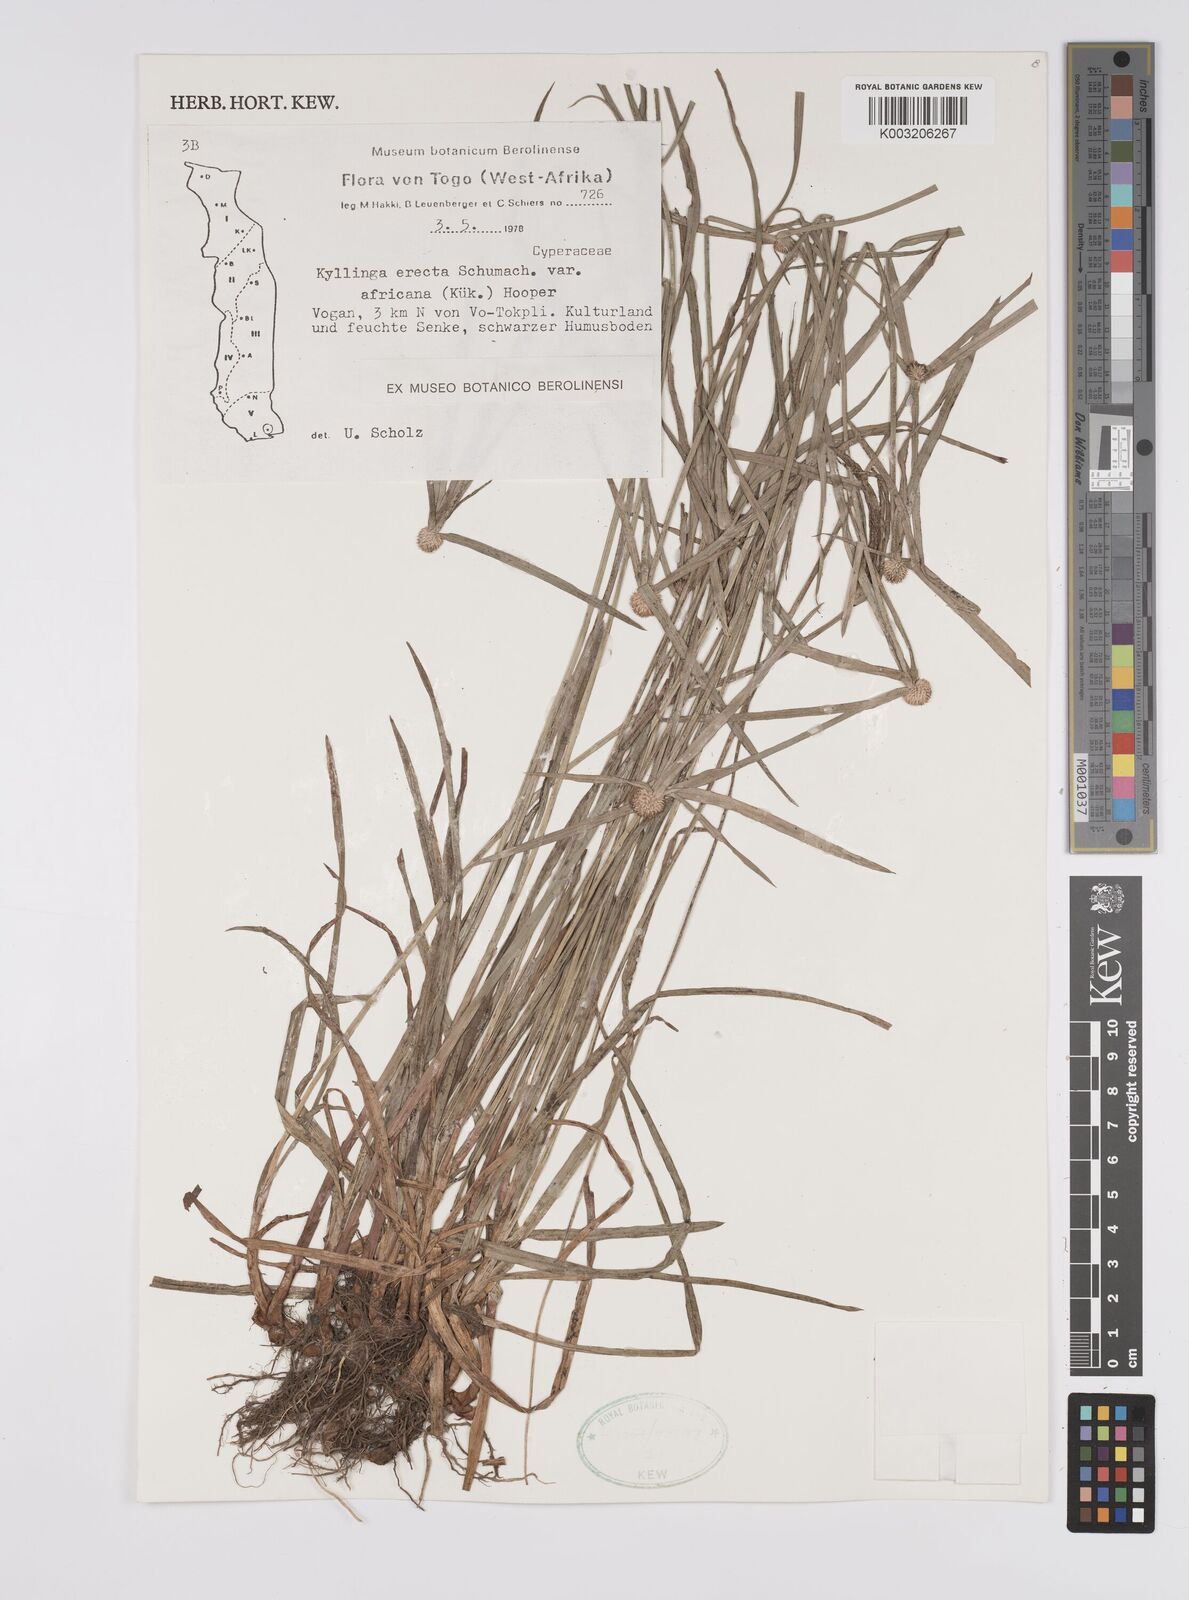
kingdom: Plantae
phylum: Tracheophyta
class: Liliopsida
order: Poales
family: Cyperaceae
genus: Cyperus
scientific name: Cyperus
